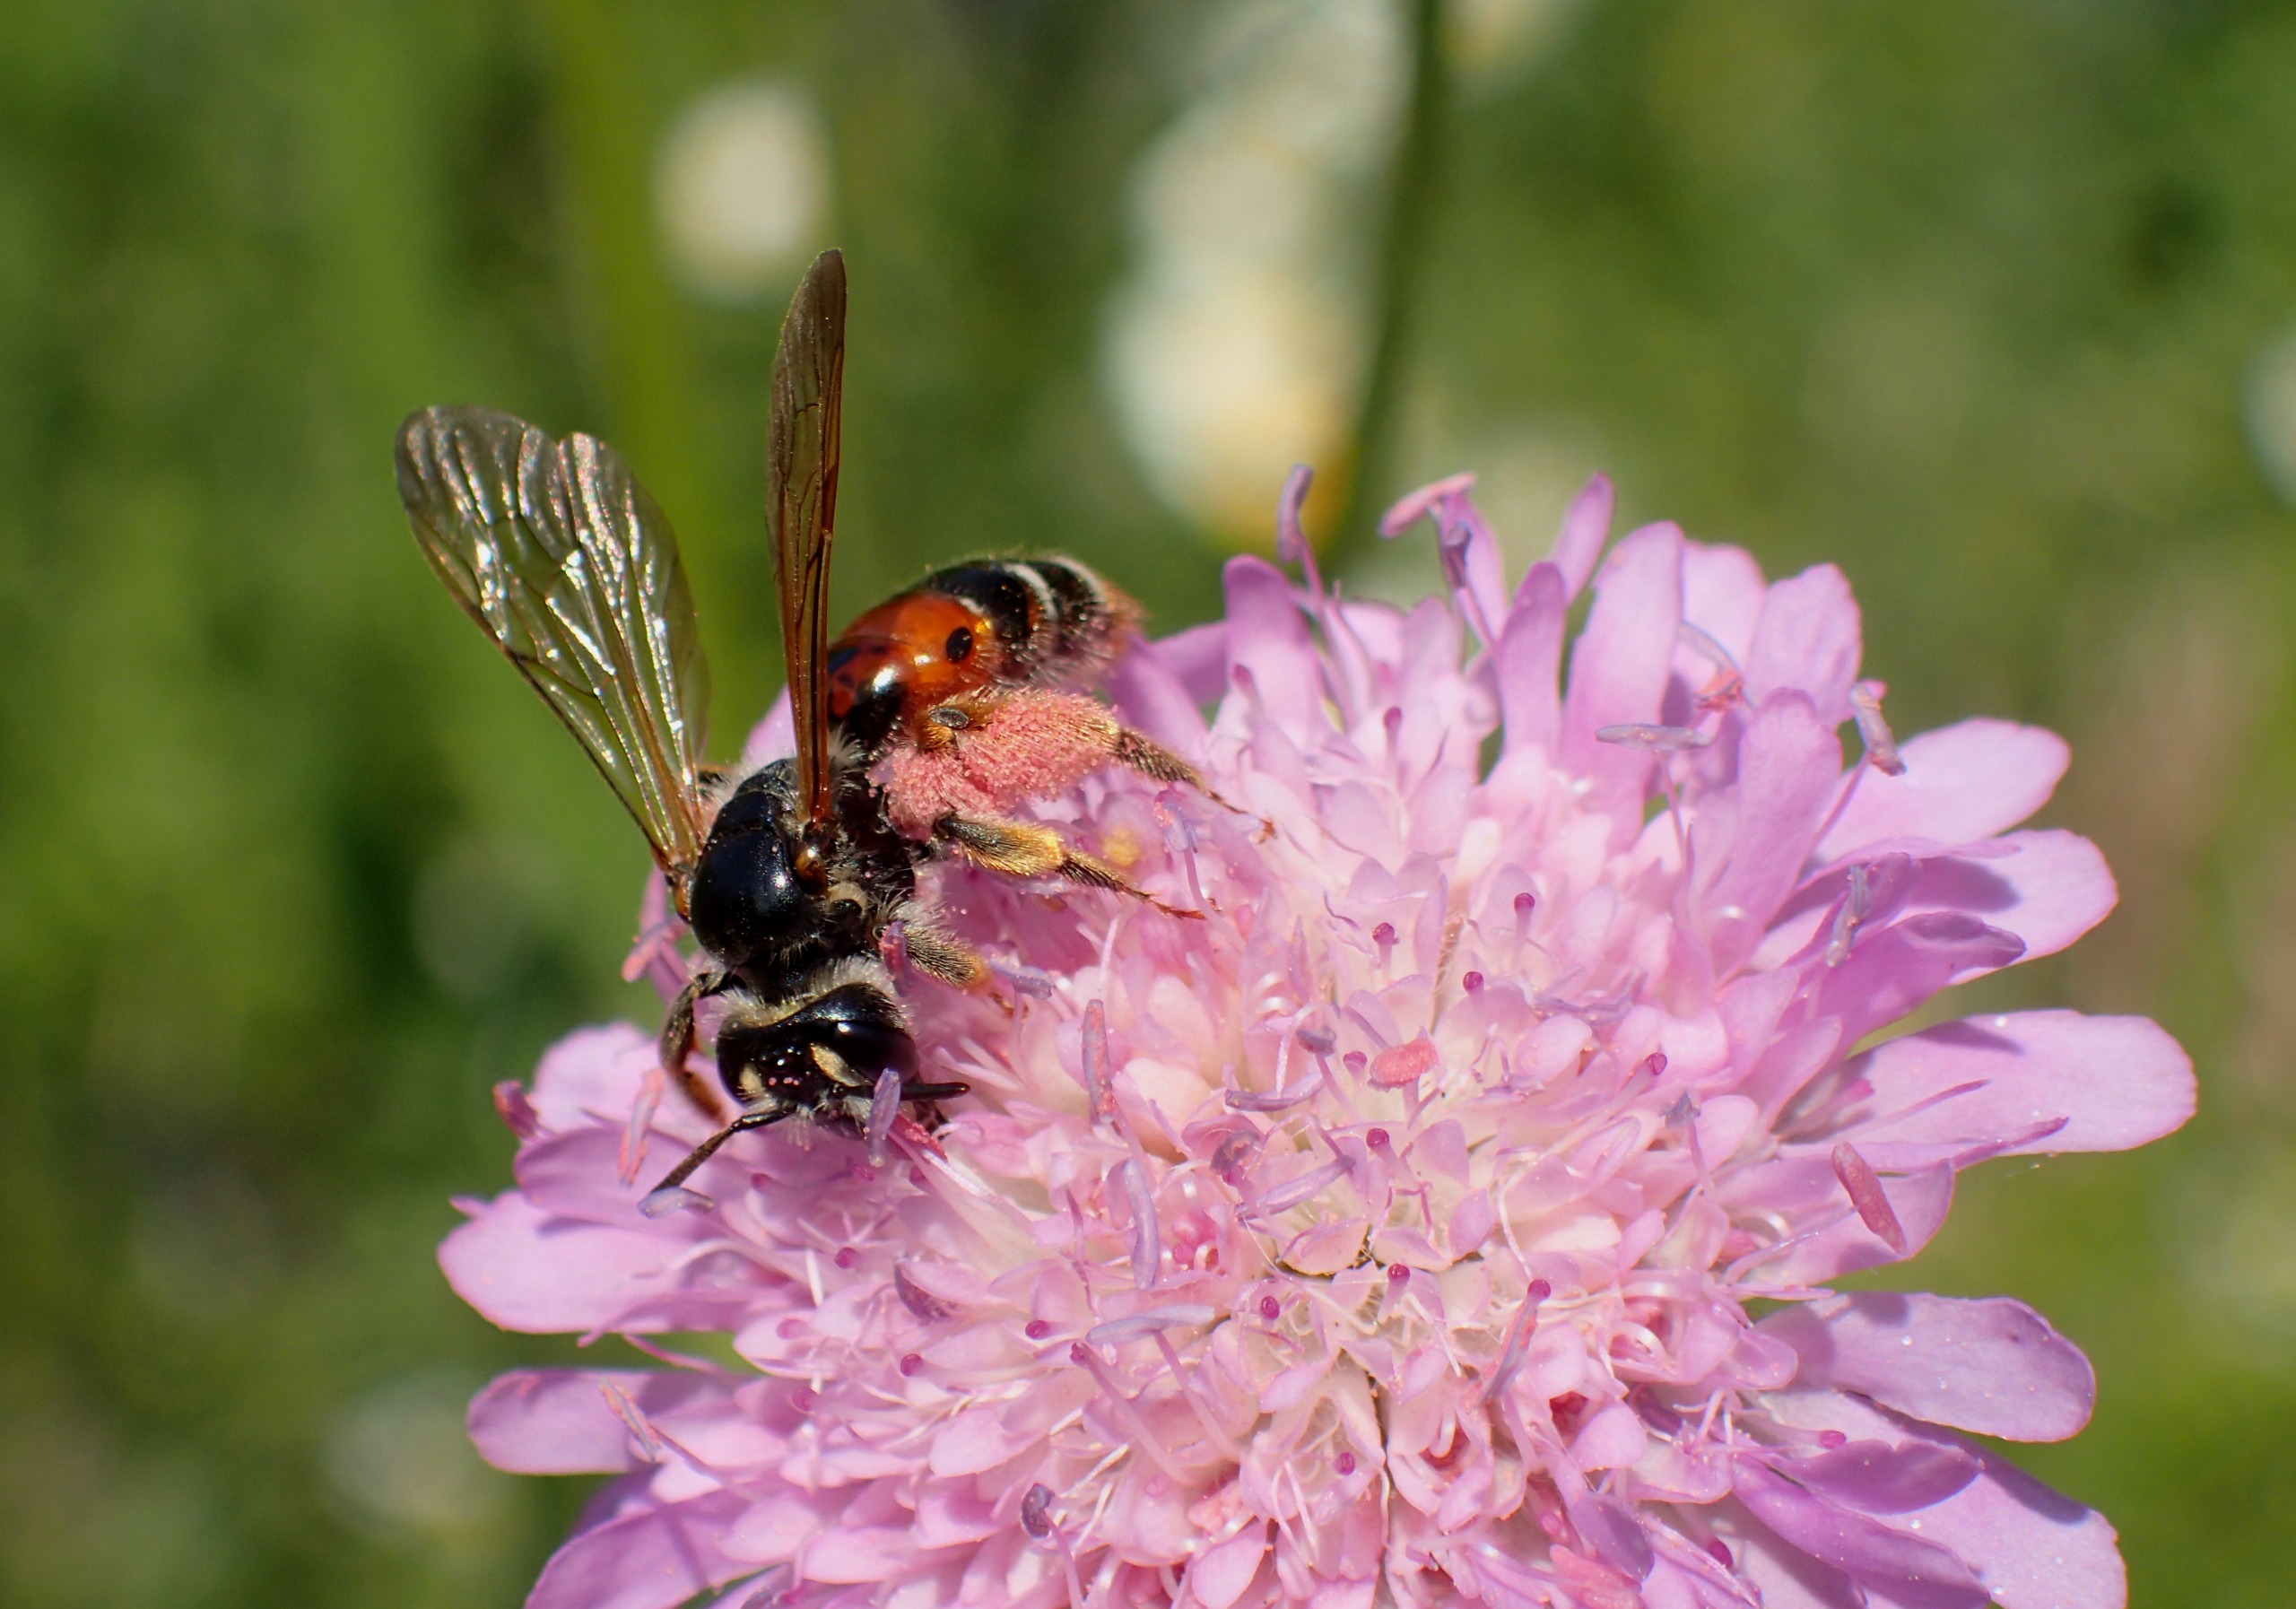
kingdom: Animalia
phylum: Arthropoda
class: Insecta
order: Hymenoptera
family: Andrenidae
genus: Andrena
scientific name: Andrena hattorfiana
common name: Blåhatjordbi
